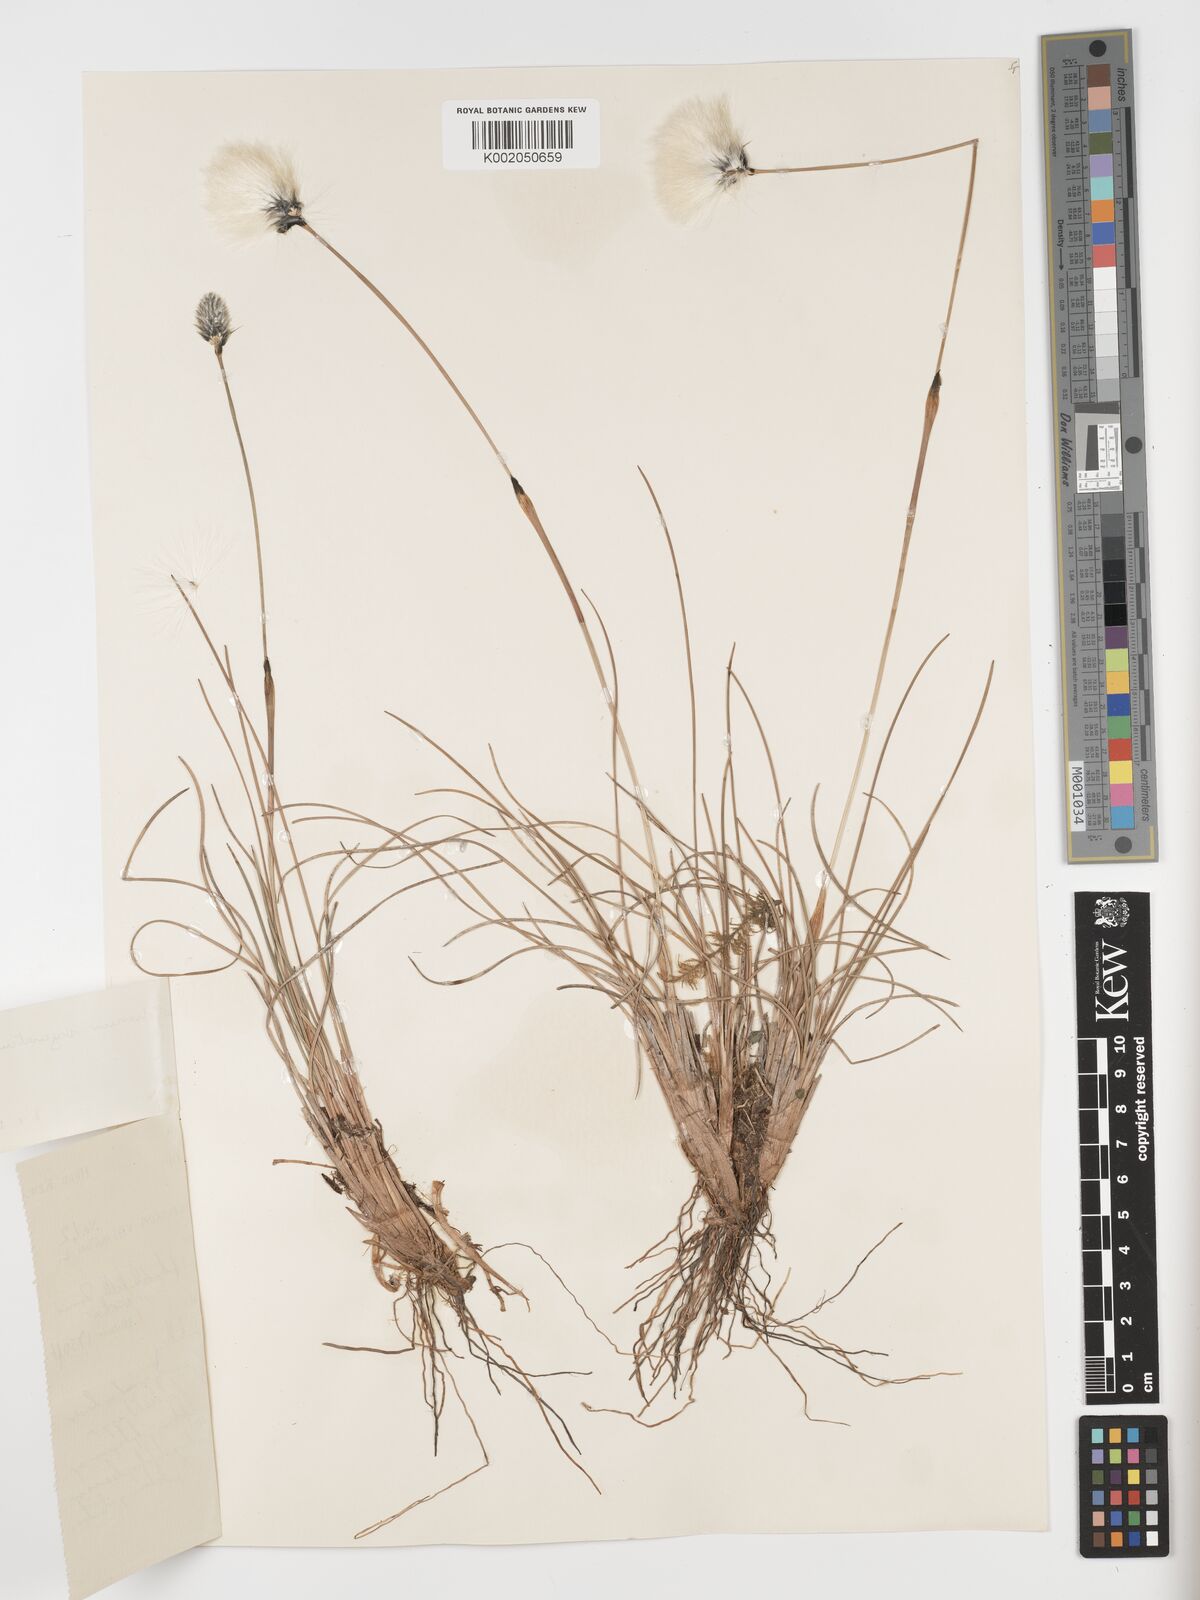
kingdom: Plantae
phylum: Tracheophyta
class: Liliopsida
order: Poales
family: Cyperaceae
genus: Eriophorum
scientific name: Eriophorum vaginatum
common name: Hare's-tail cottongrass
